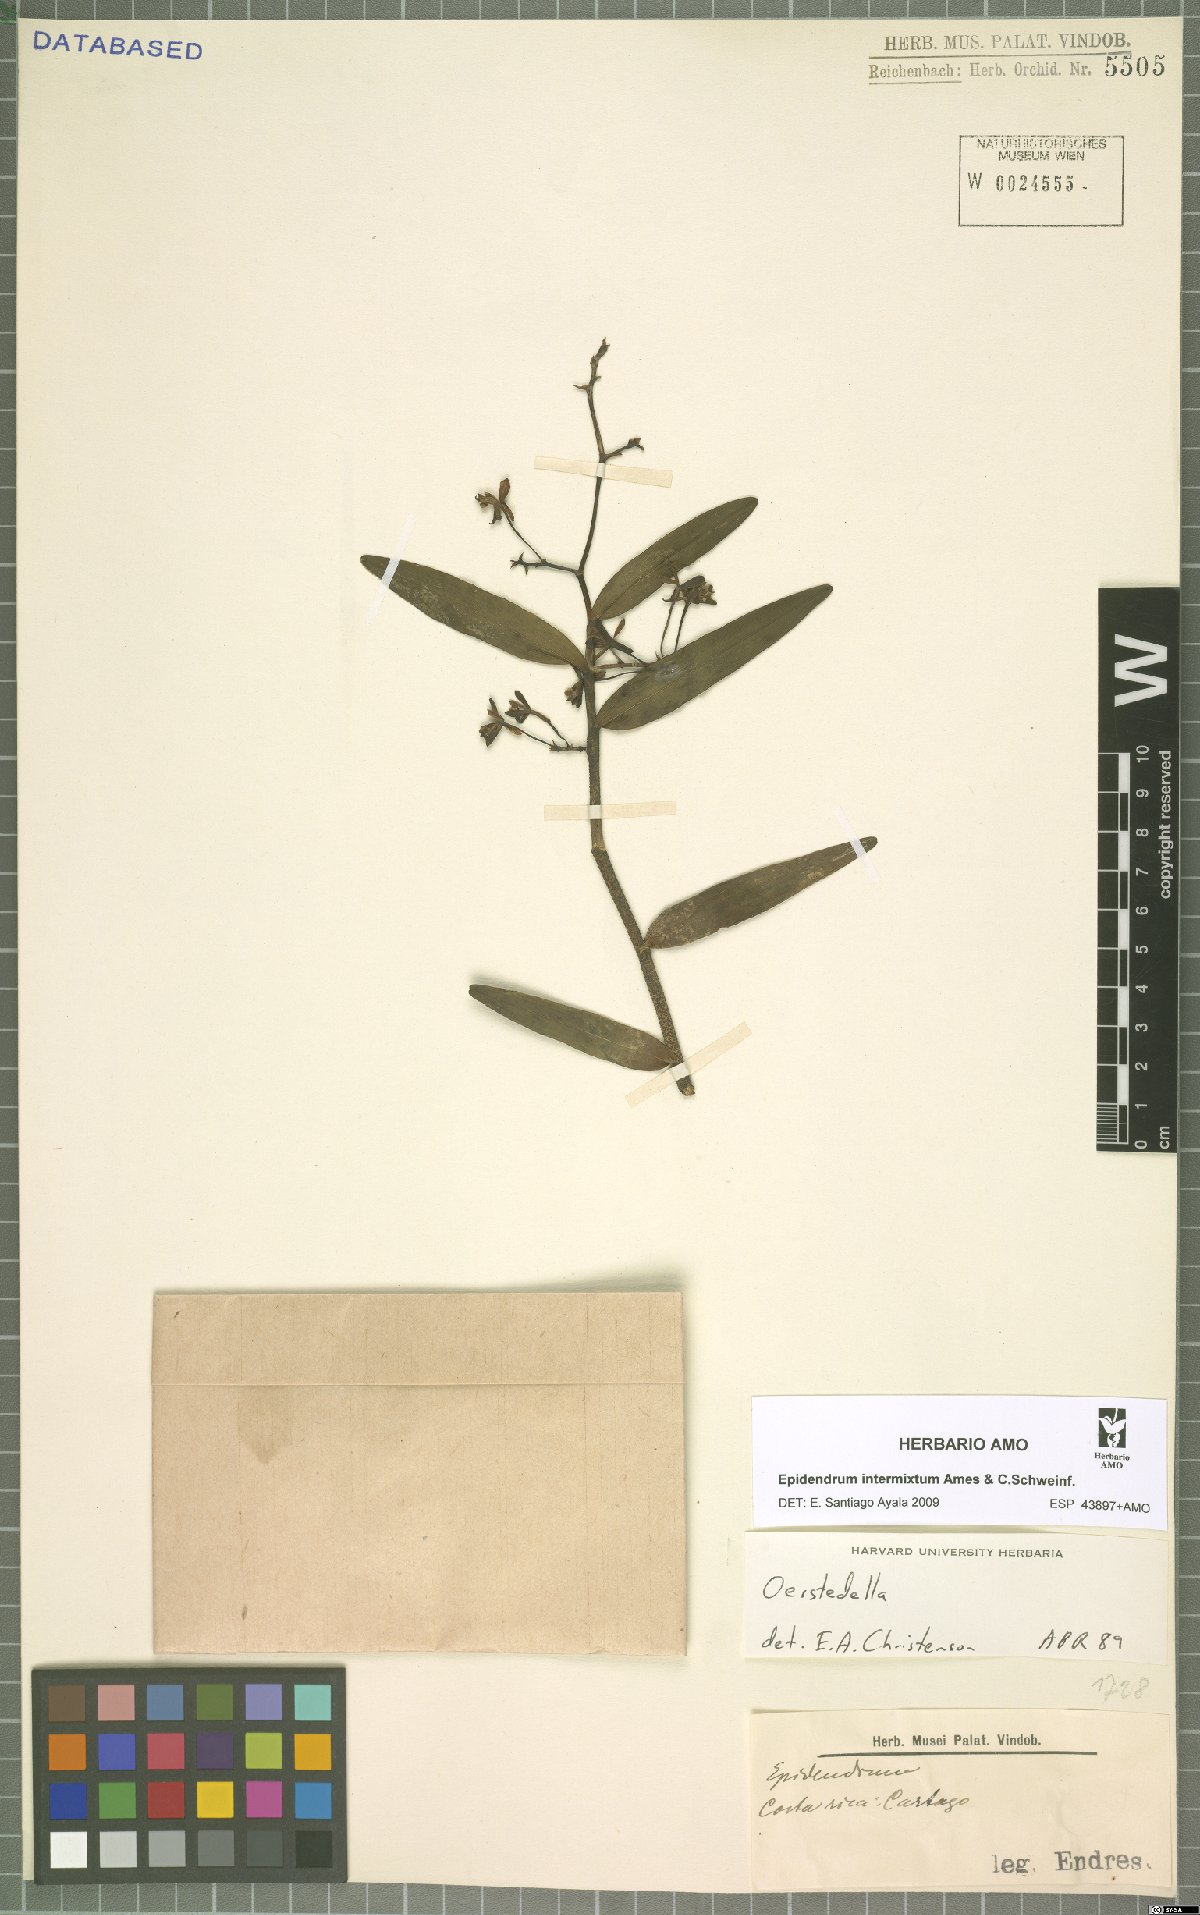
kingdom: Plantae
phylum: Tracheophyta
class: Liliopsida
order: Asparagales
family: Orchidaceae
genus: Epidendrum
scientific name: Epidendrum intermixtum
